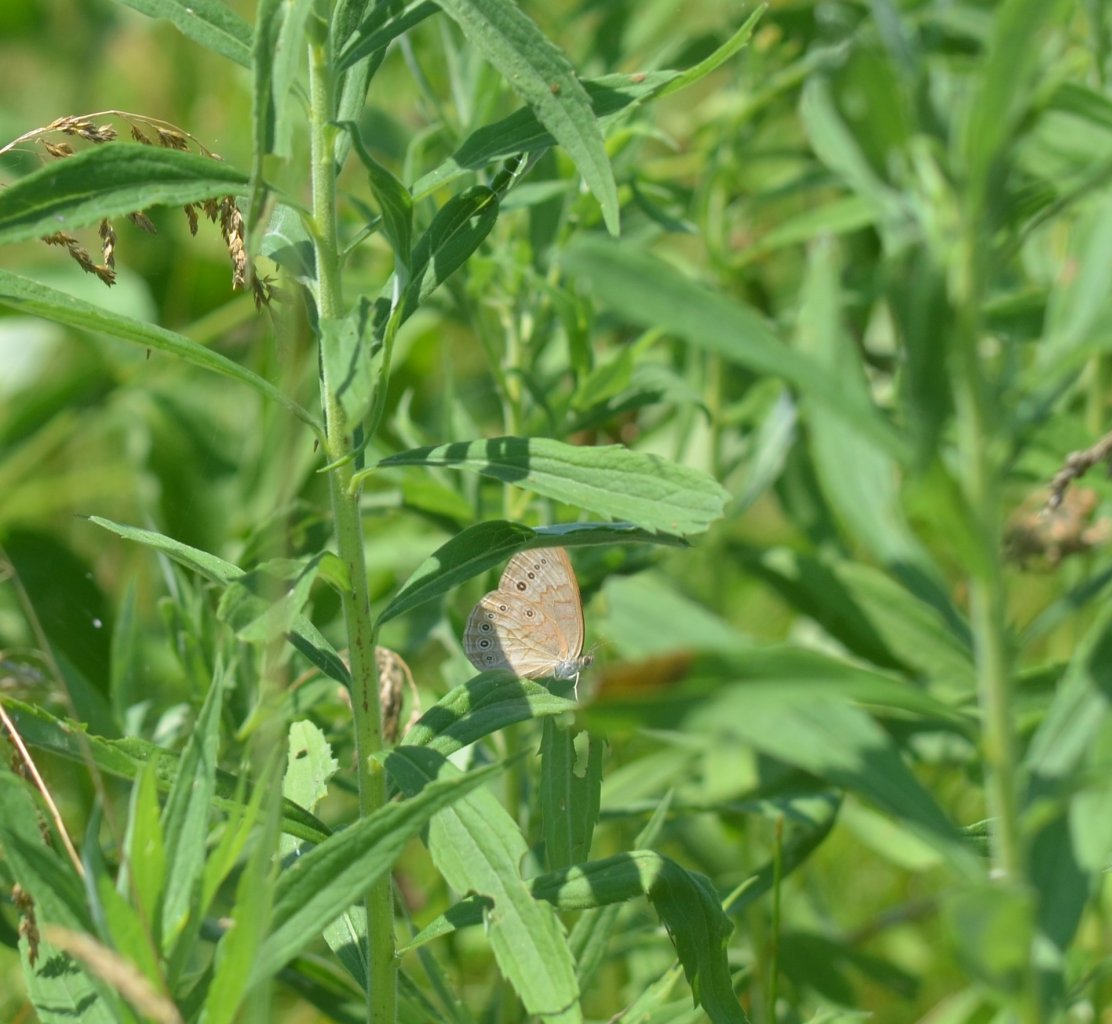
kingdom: Animalia
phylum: Arthropoda
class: Insecta
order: Lepidoptera
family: Nymphalidae
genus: Lethe
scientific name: Lethe eurydice
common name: Eyed Brown
